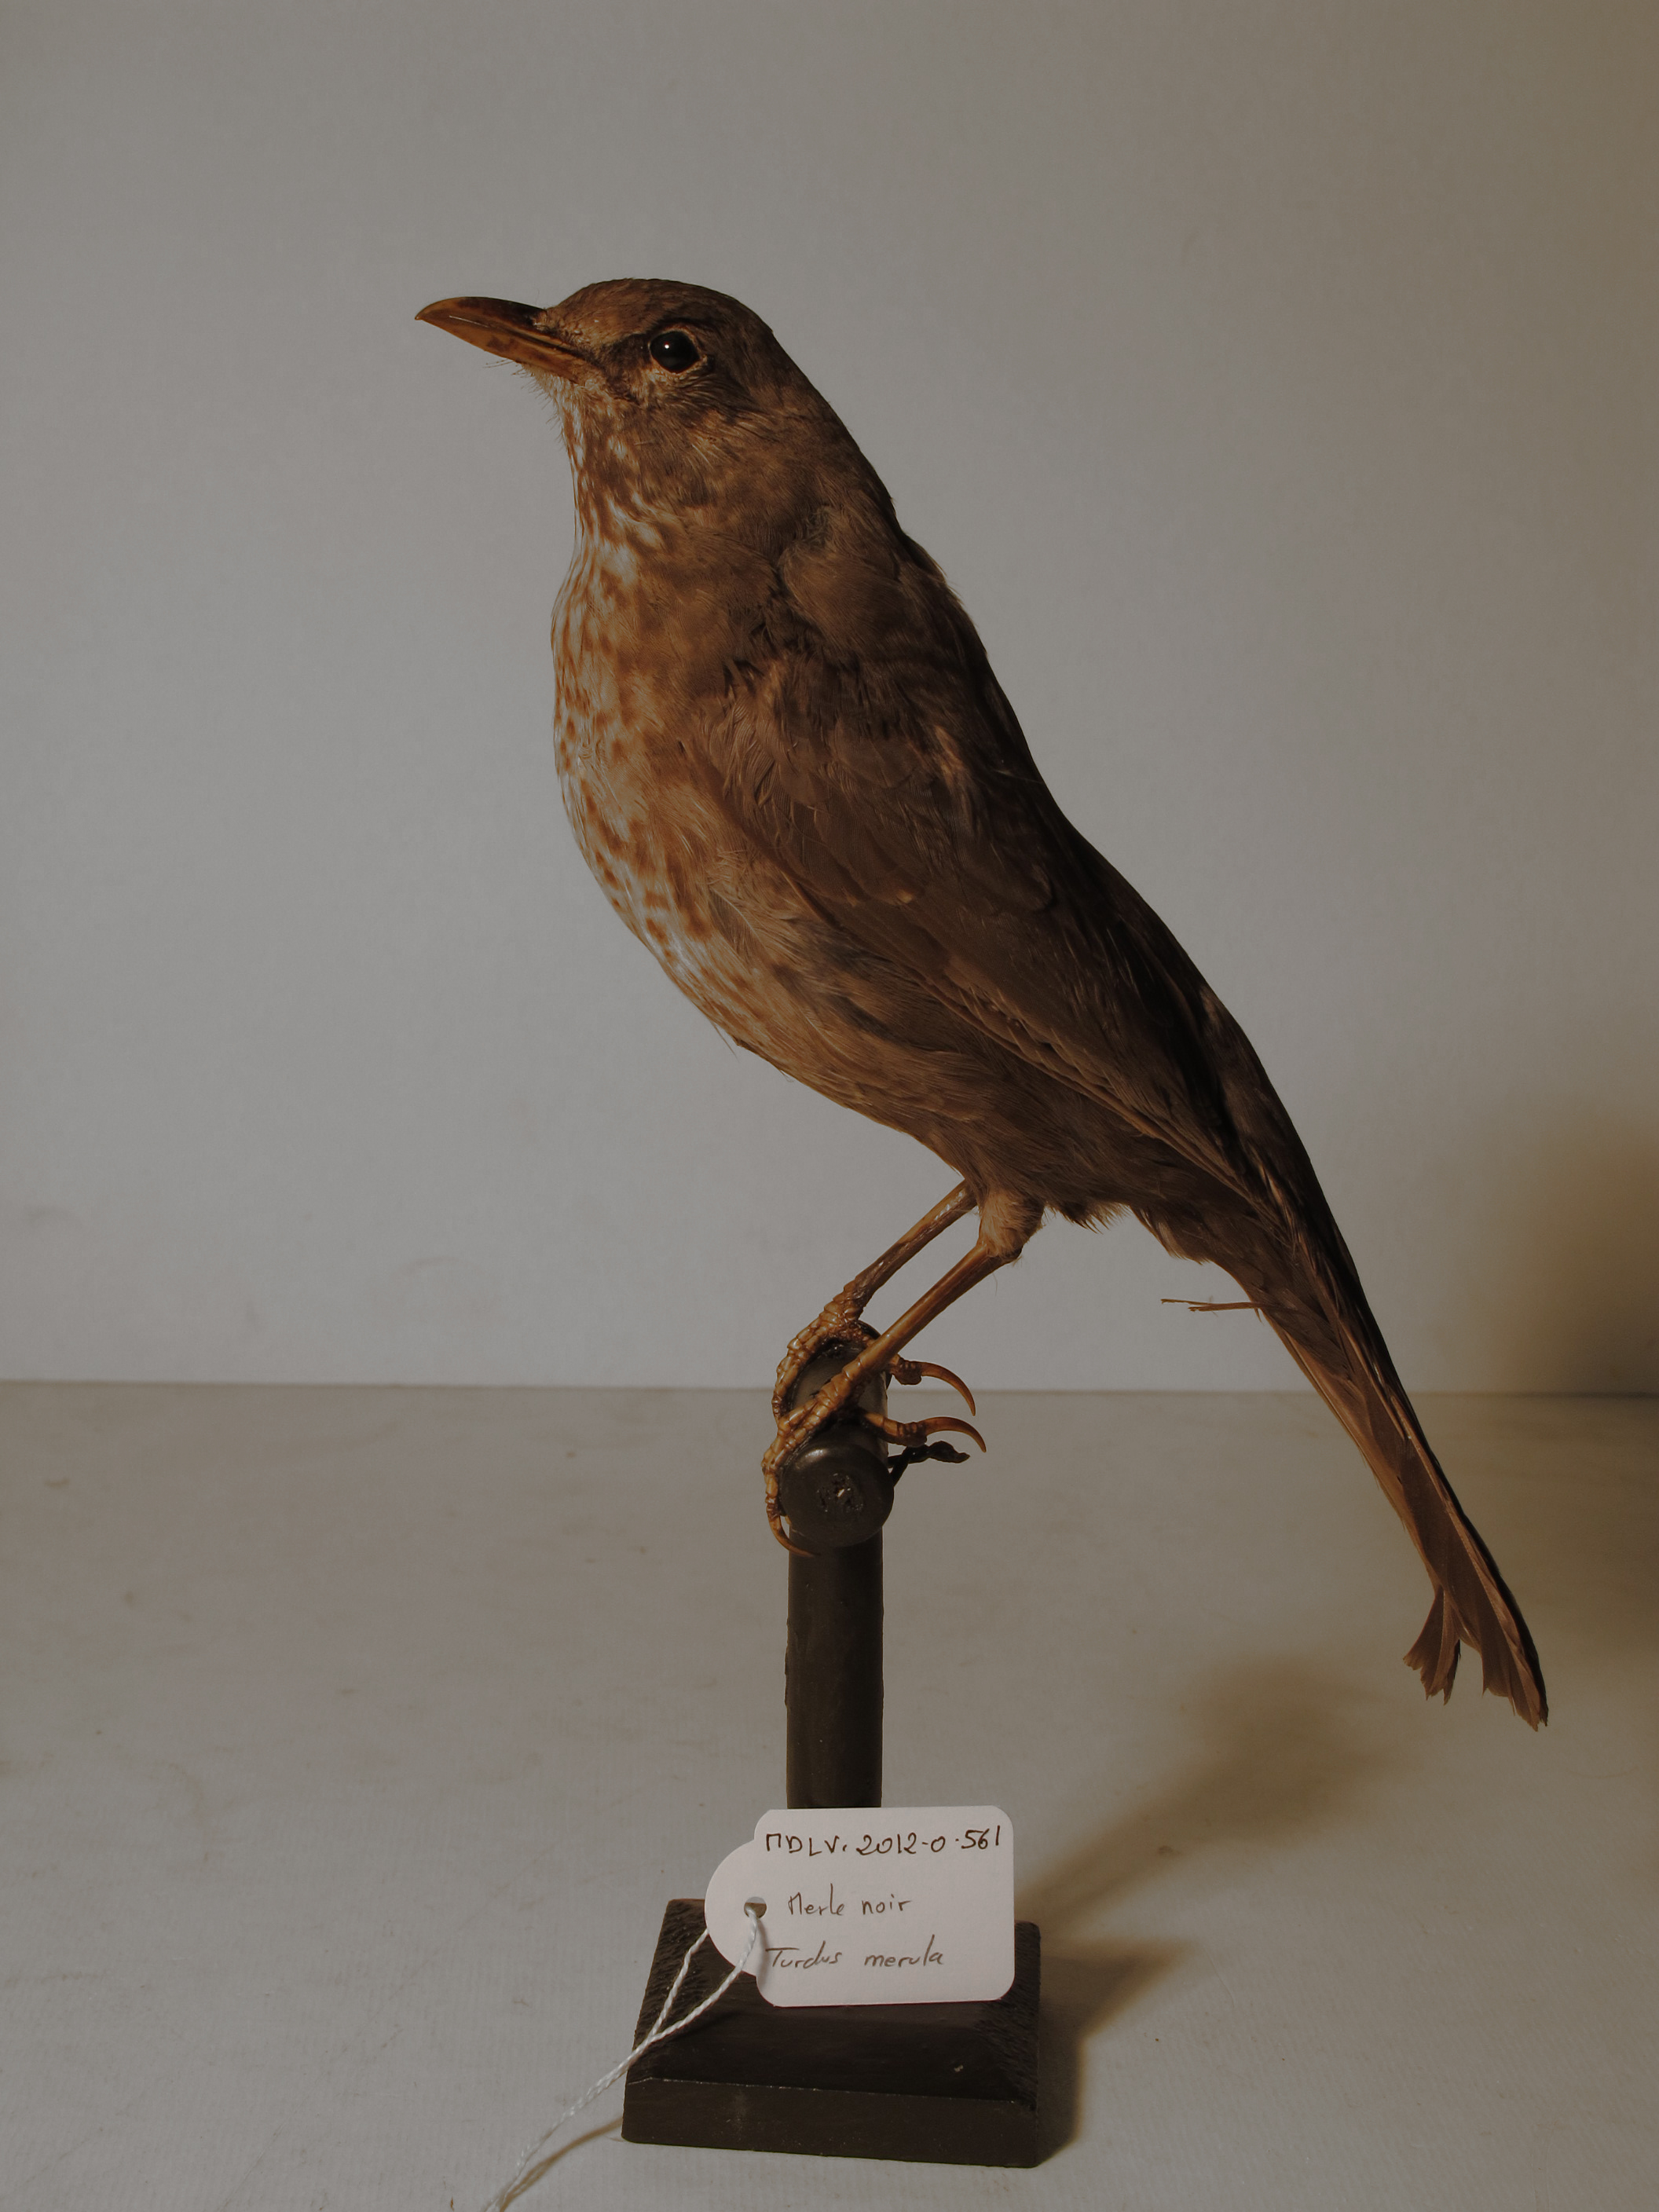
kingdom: Animalia
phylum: Chordata
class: Aves
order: Passeriformes
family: Turdidae
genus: Turdus
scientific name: Turdus merula
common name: Common Blackbird
